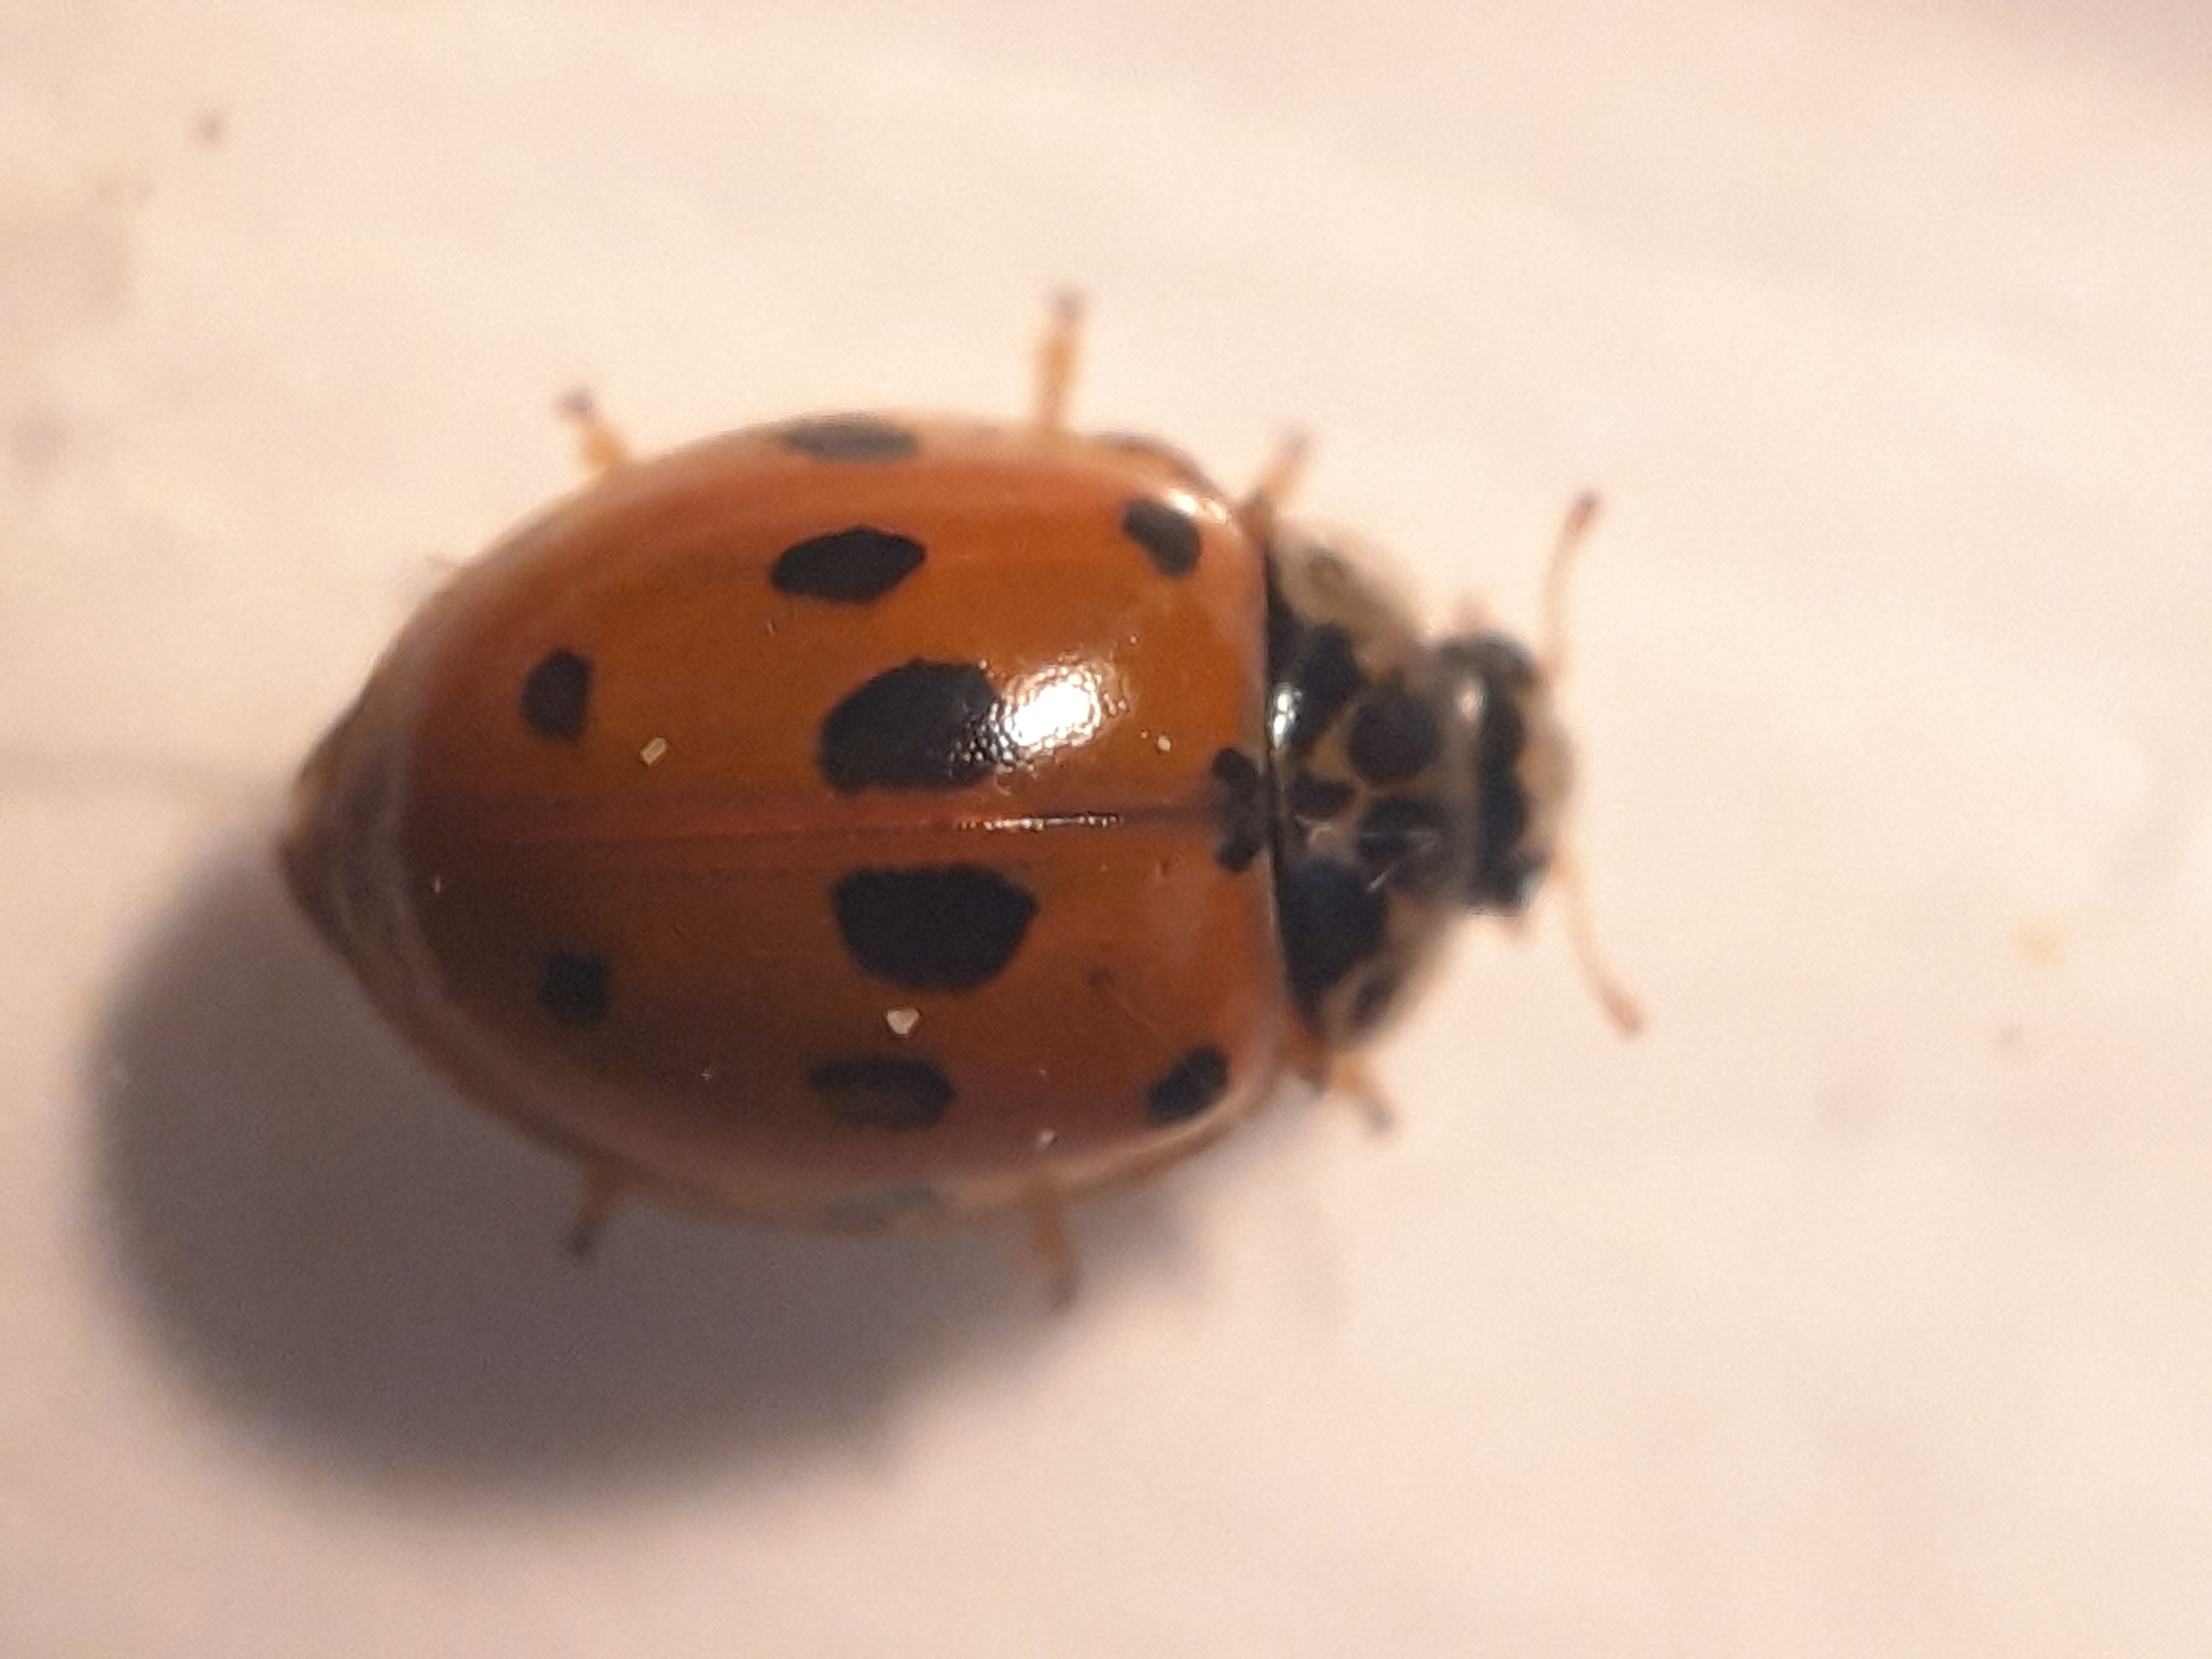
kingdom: Animalia
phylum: Arthropoda
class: Insecta
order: Coleoptera
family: Coccinellidae
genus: Adalia
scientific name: Adalia decempunctata
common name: Tiplettet mariehøne
